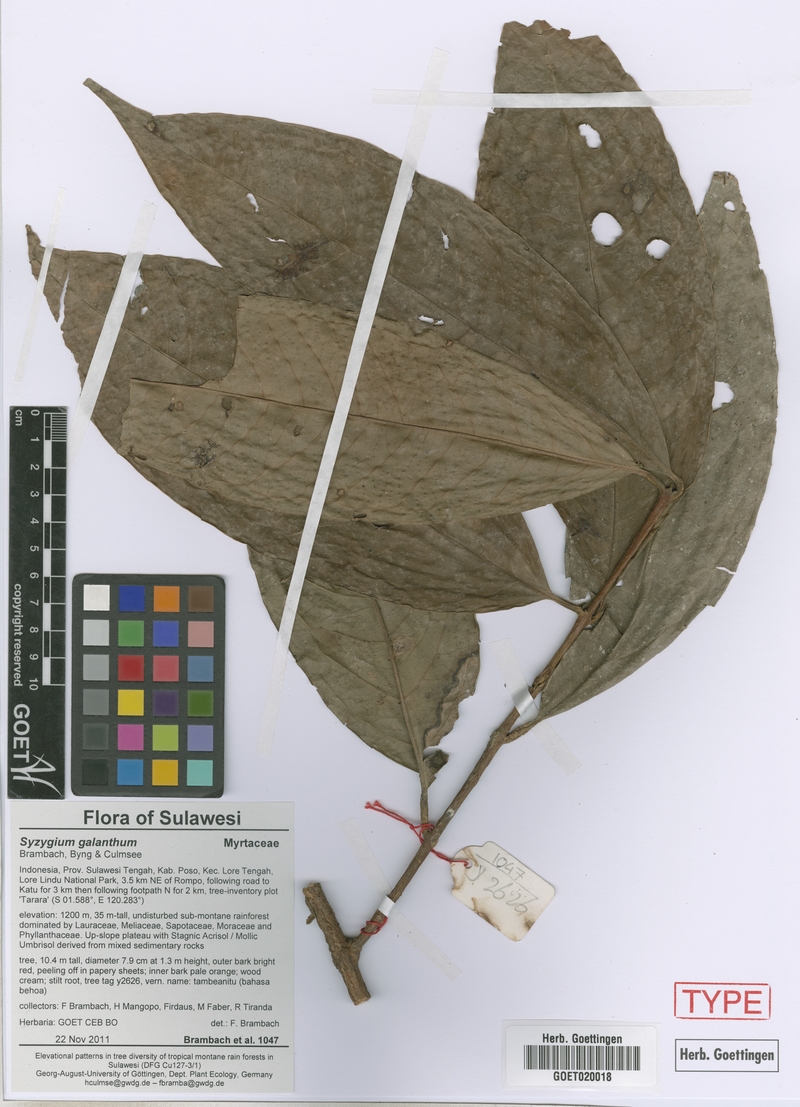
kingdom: Plantae
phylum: Tracheophyta
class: Magnoliopsida
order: Myrtales
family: Myrtaceae
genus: Syzygium
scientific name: Syzygium galanthum
